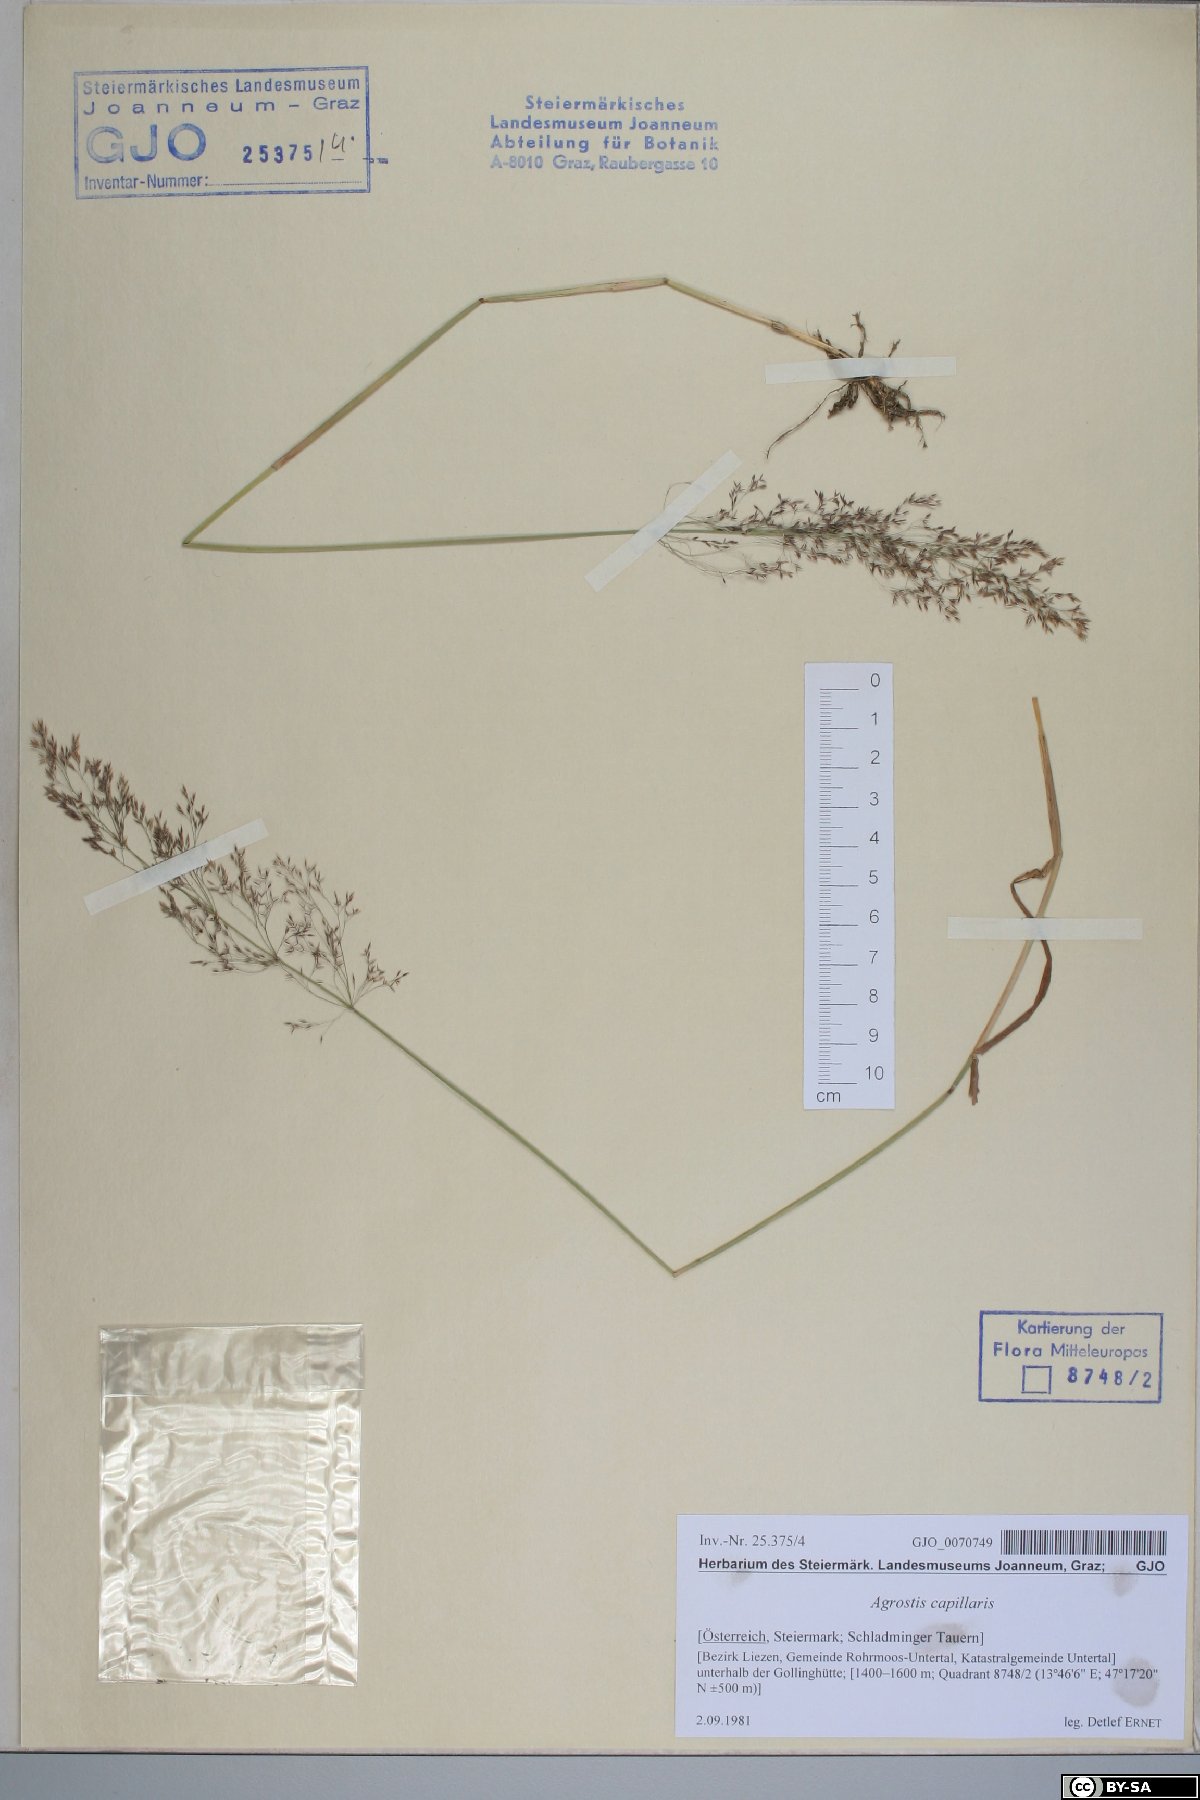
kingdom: Plantae
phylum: Tracheophyta
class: Liliopsida
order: Poales
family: Poaceae
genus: Agrostis
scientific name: Agrostis capillaris
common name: Colonial bentgrass
